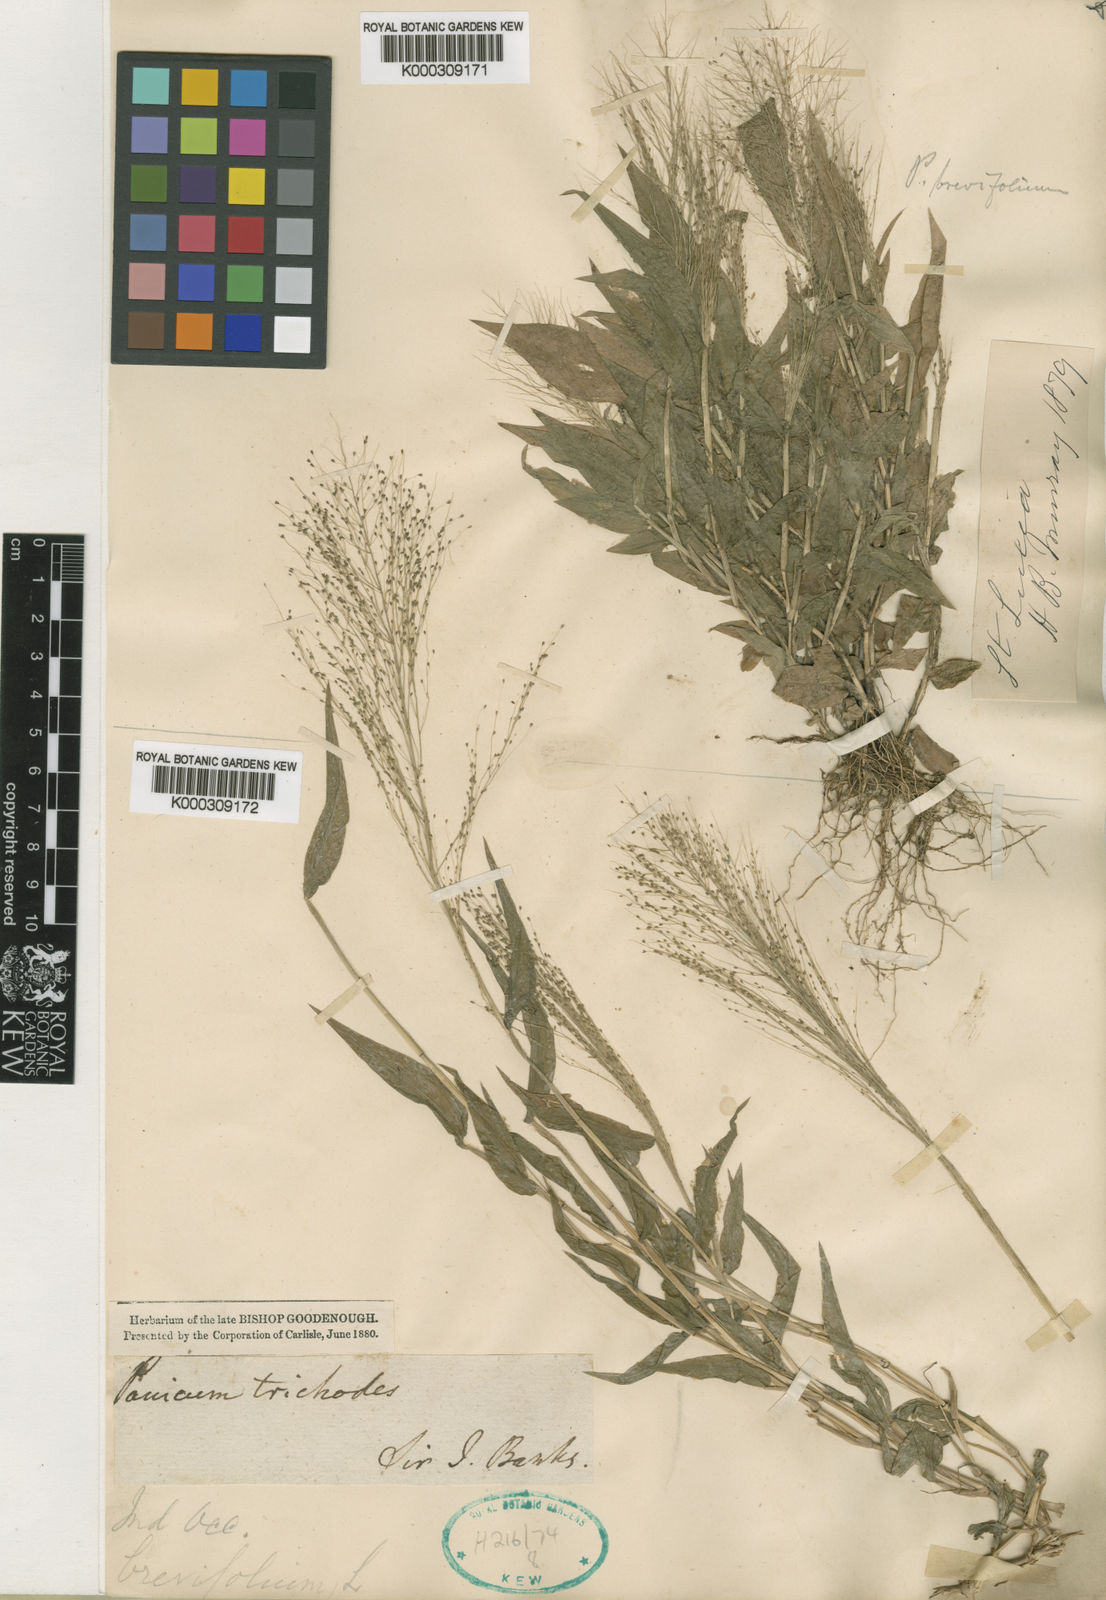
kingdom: Plantae
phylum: Tracheophyta
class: Liliopsida
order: Poales
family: Poaceae
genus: Panicum
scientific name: Panicum trichoides
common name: Tickle grass
